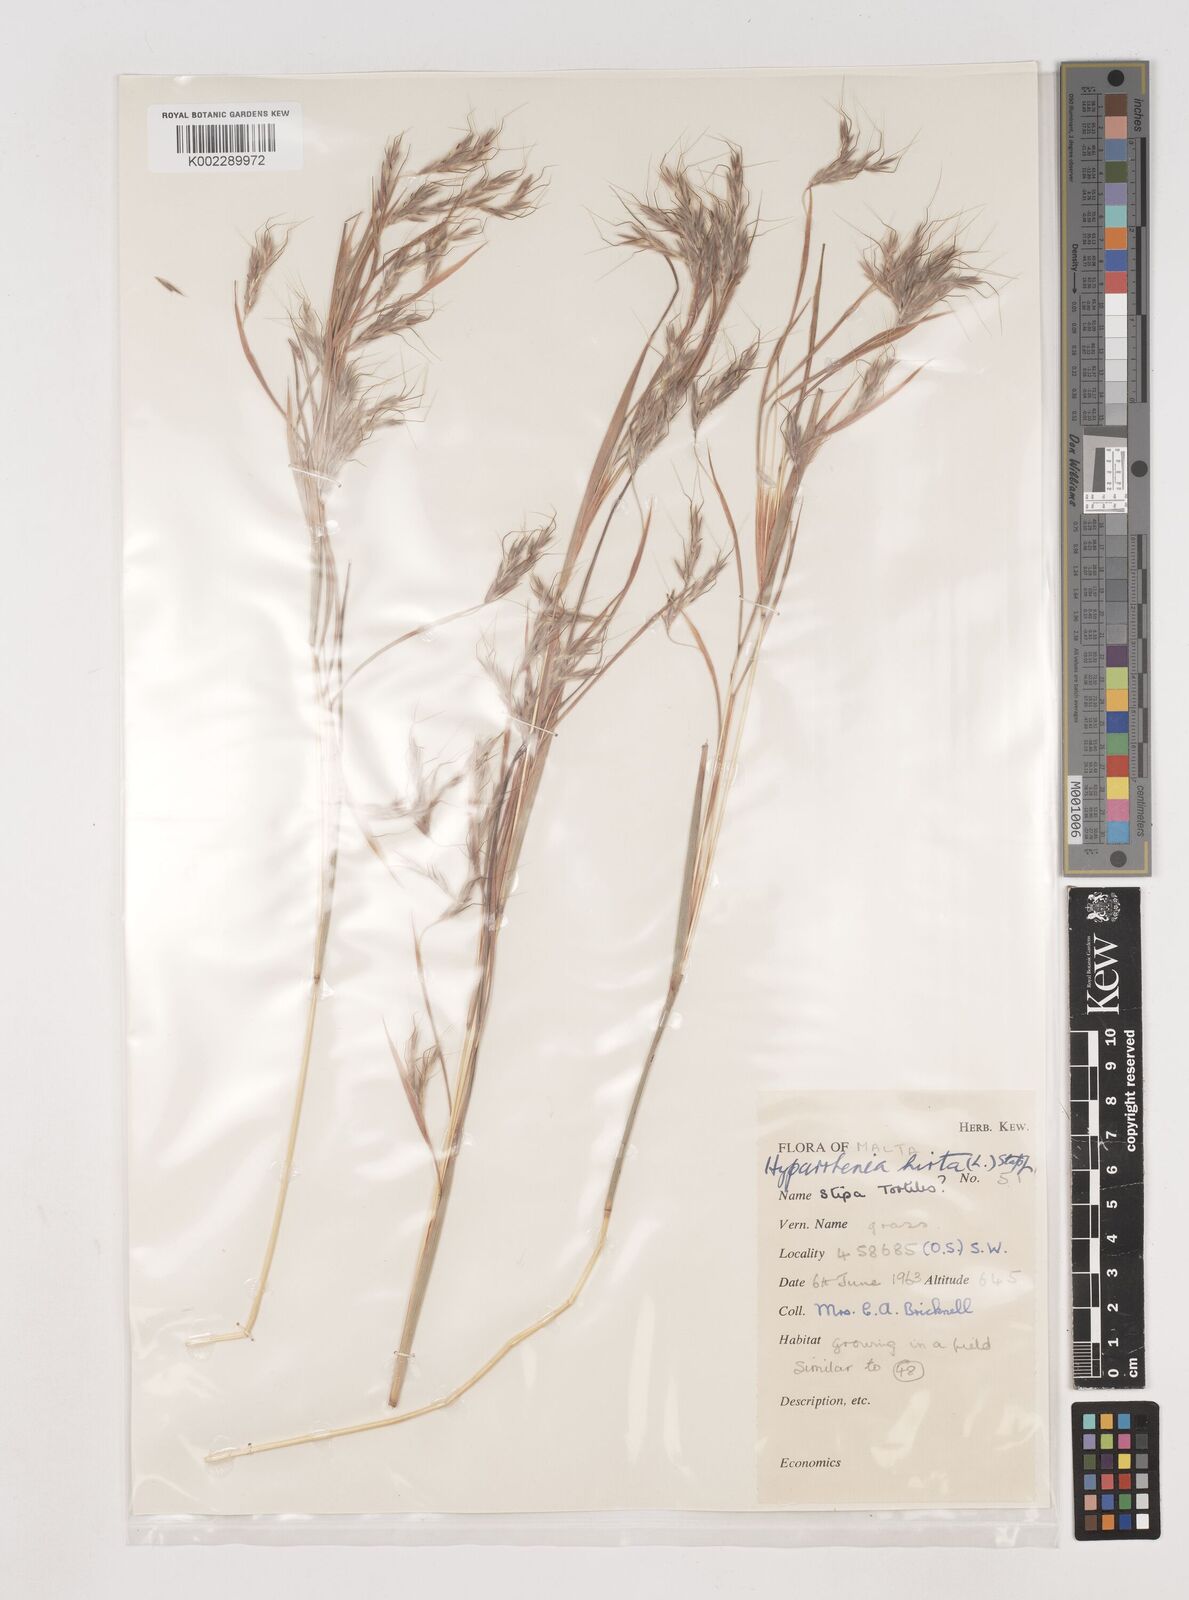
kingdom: Plantae
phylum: Tracheophyta
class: Liliopsida
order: Poales
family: Poaceae
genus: Hyparrhenia
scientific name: Hyparrhenia hirta
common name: Thatching grass
